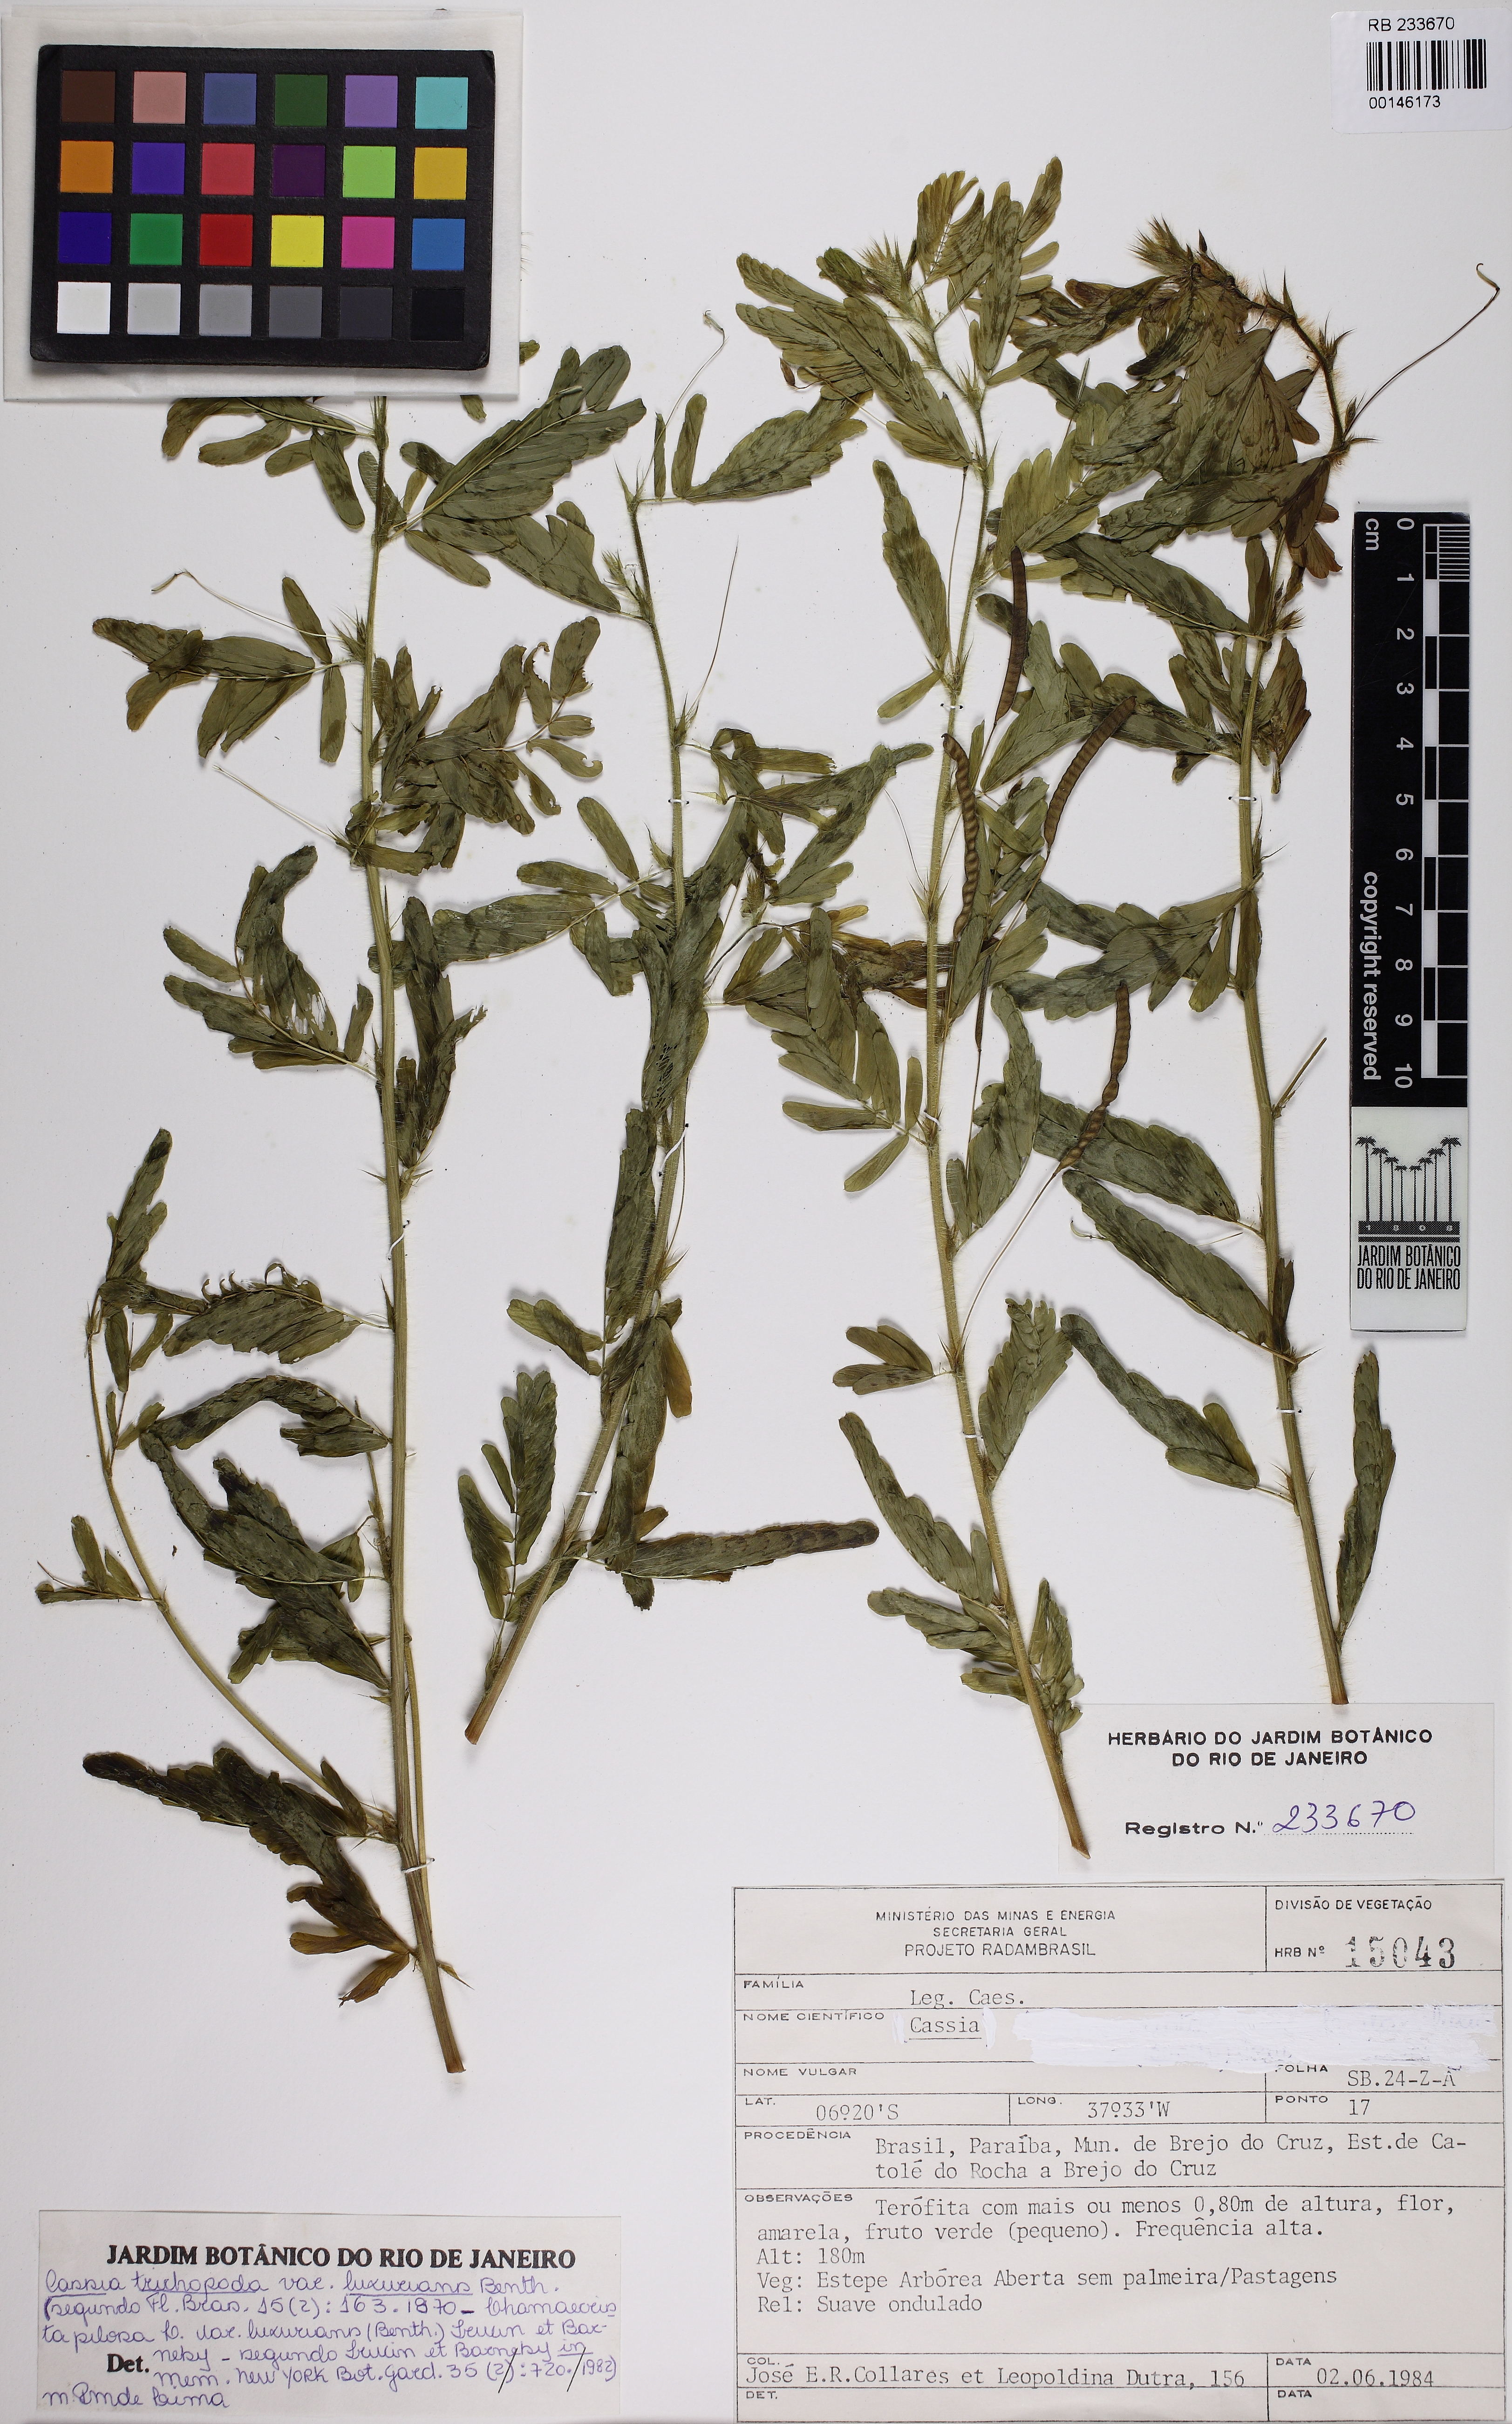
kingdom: Plantae
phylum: Tracheophyta
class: Magnoliopsida
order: Fabales
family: Fabaceae
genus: Chamaecrista
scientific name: Chamaecrista pilosa
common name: Hairy sensitive pea
